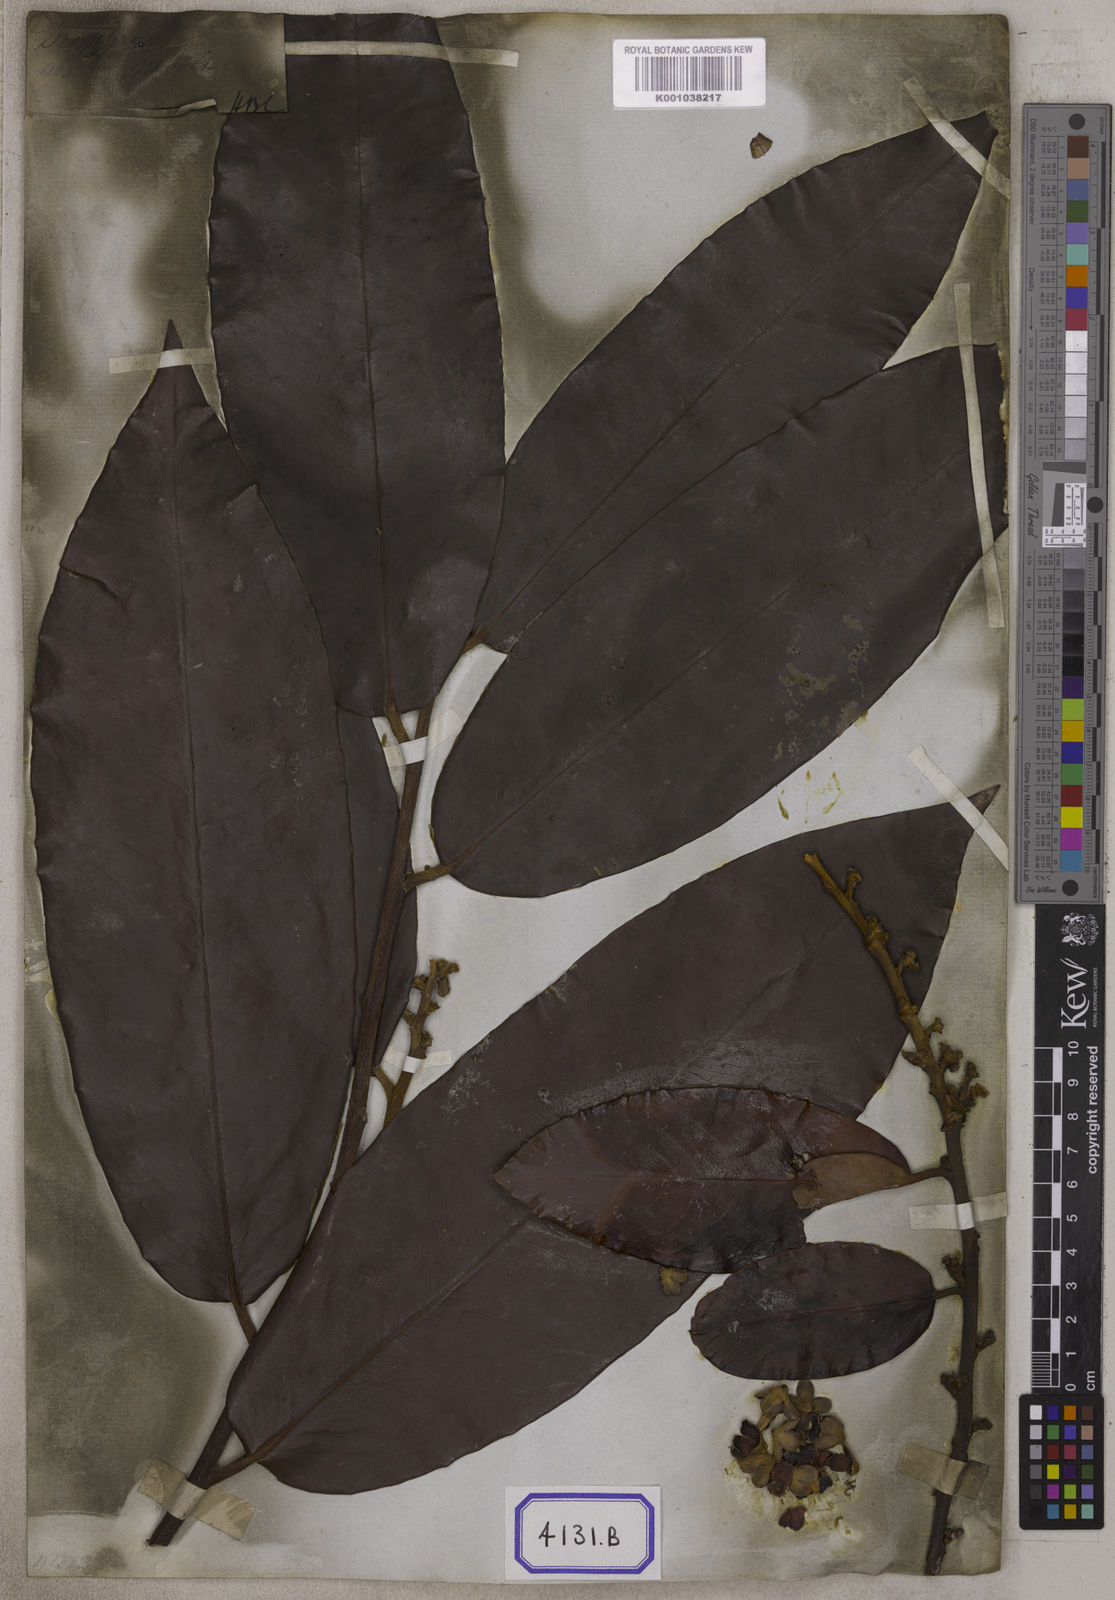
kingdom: Plantae
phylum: Tracheophyta
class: Magnoliopsida
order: Ericales
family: Ebenaceae
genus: Diospyros
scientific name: Diospyros blancoi
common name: Mabola-tree
